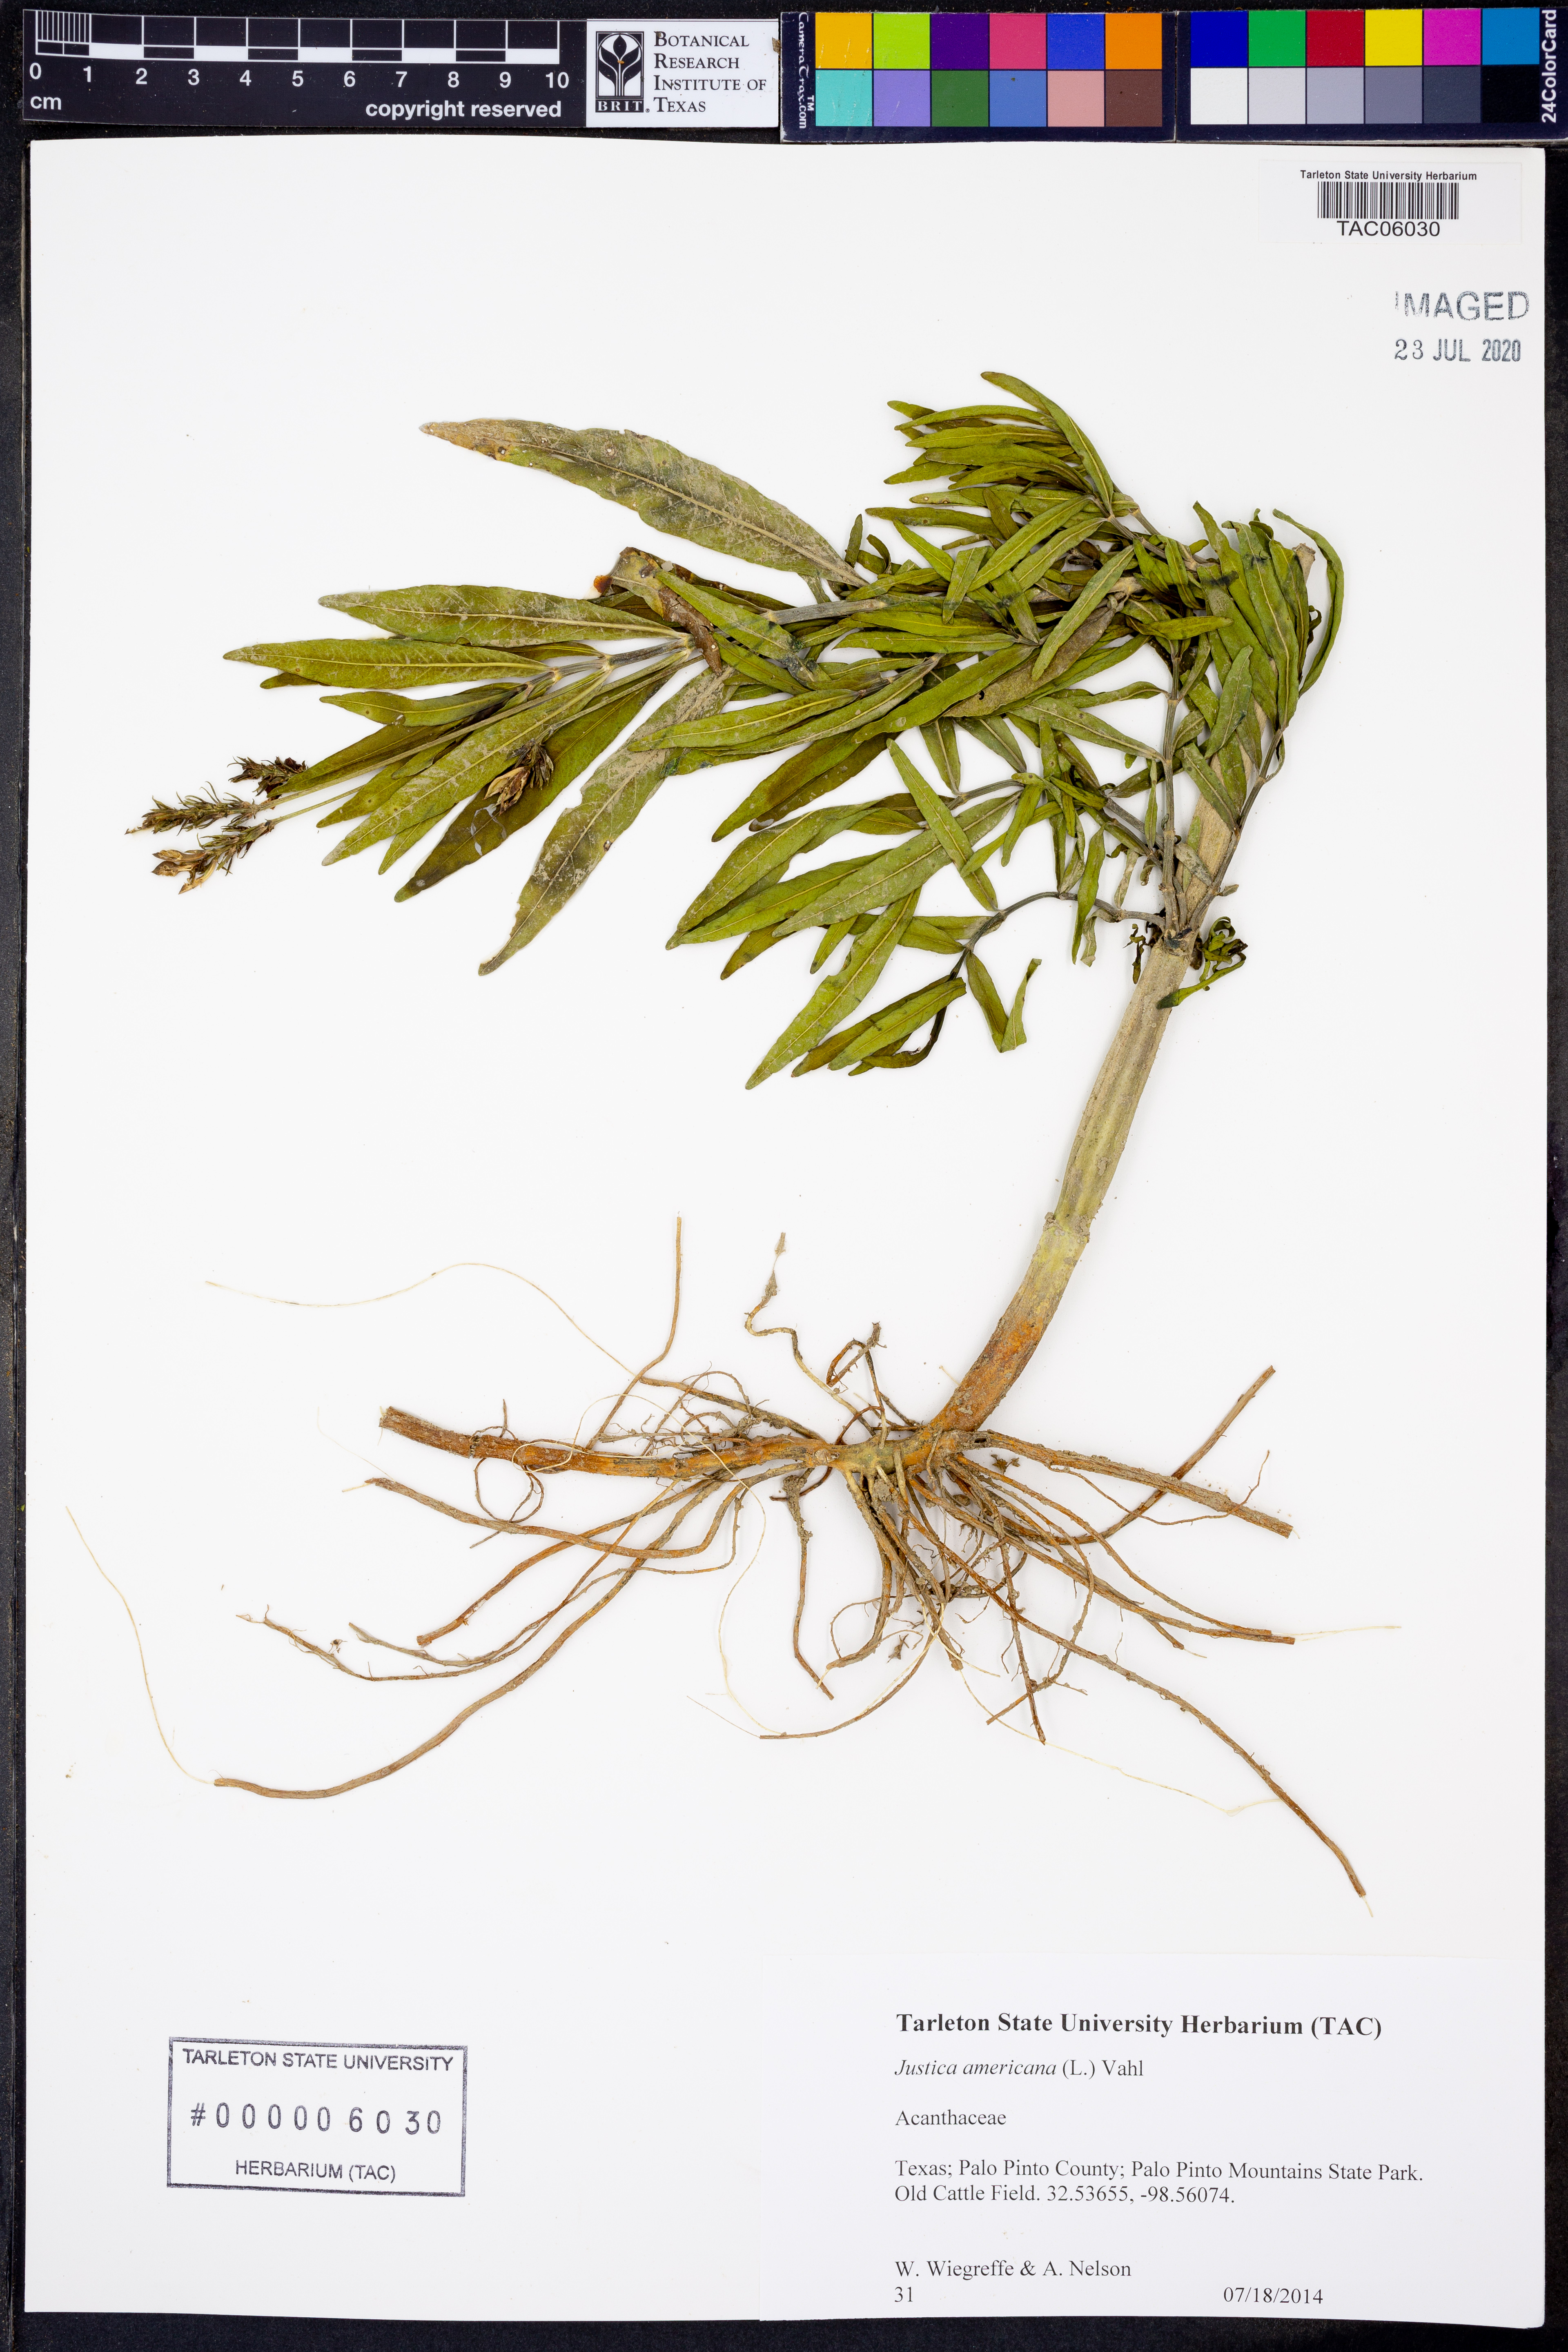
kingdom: Plantae
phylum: Tracheophyta
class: Magnoliopsida
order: Lamiales
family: Acanthaceae
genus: Dianthera
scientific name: Dianthera americana
